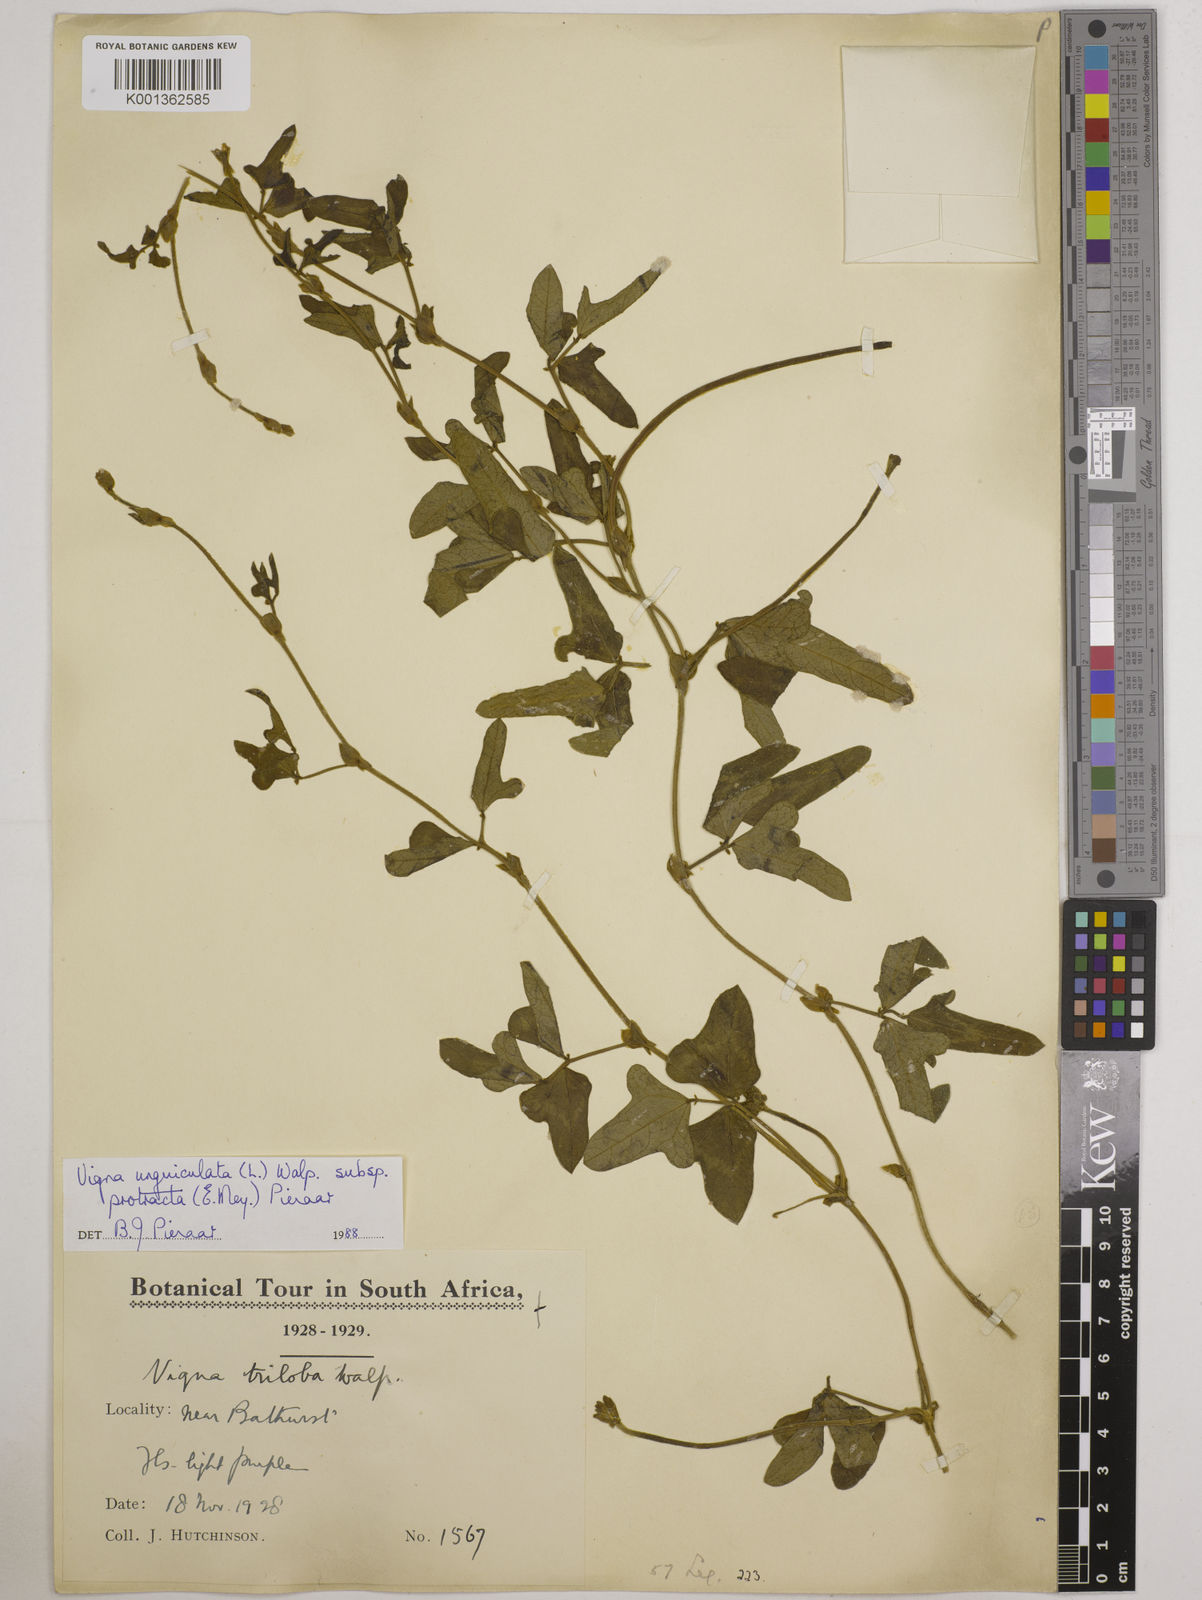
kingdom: Plantae
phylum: Tracheophyta
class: Magnoliopsida
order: Fabales
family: Fabaceae
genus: Vigna
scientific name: Vigna unguiculata
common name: Cowpea
